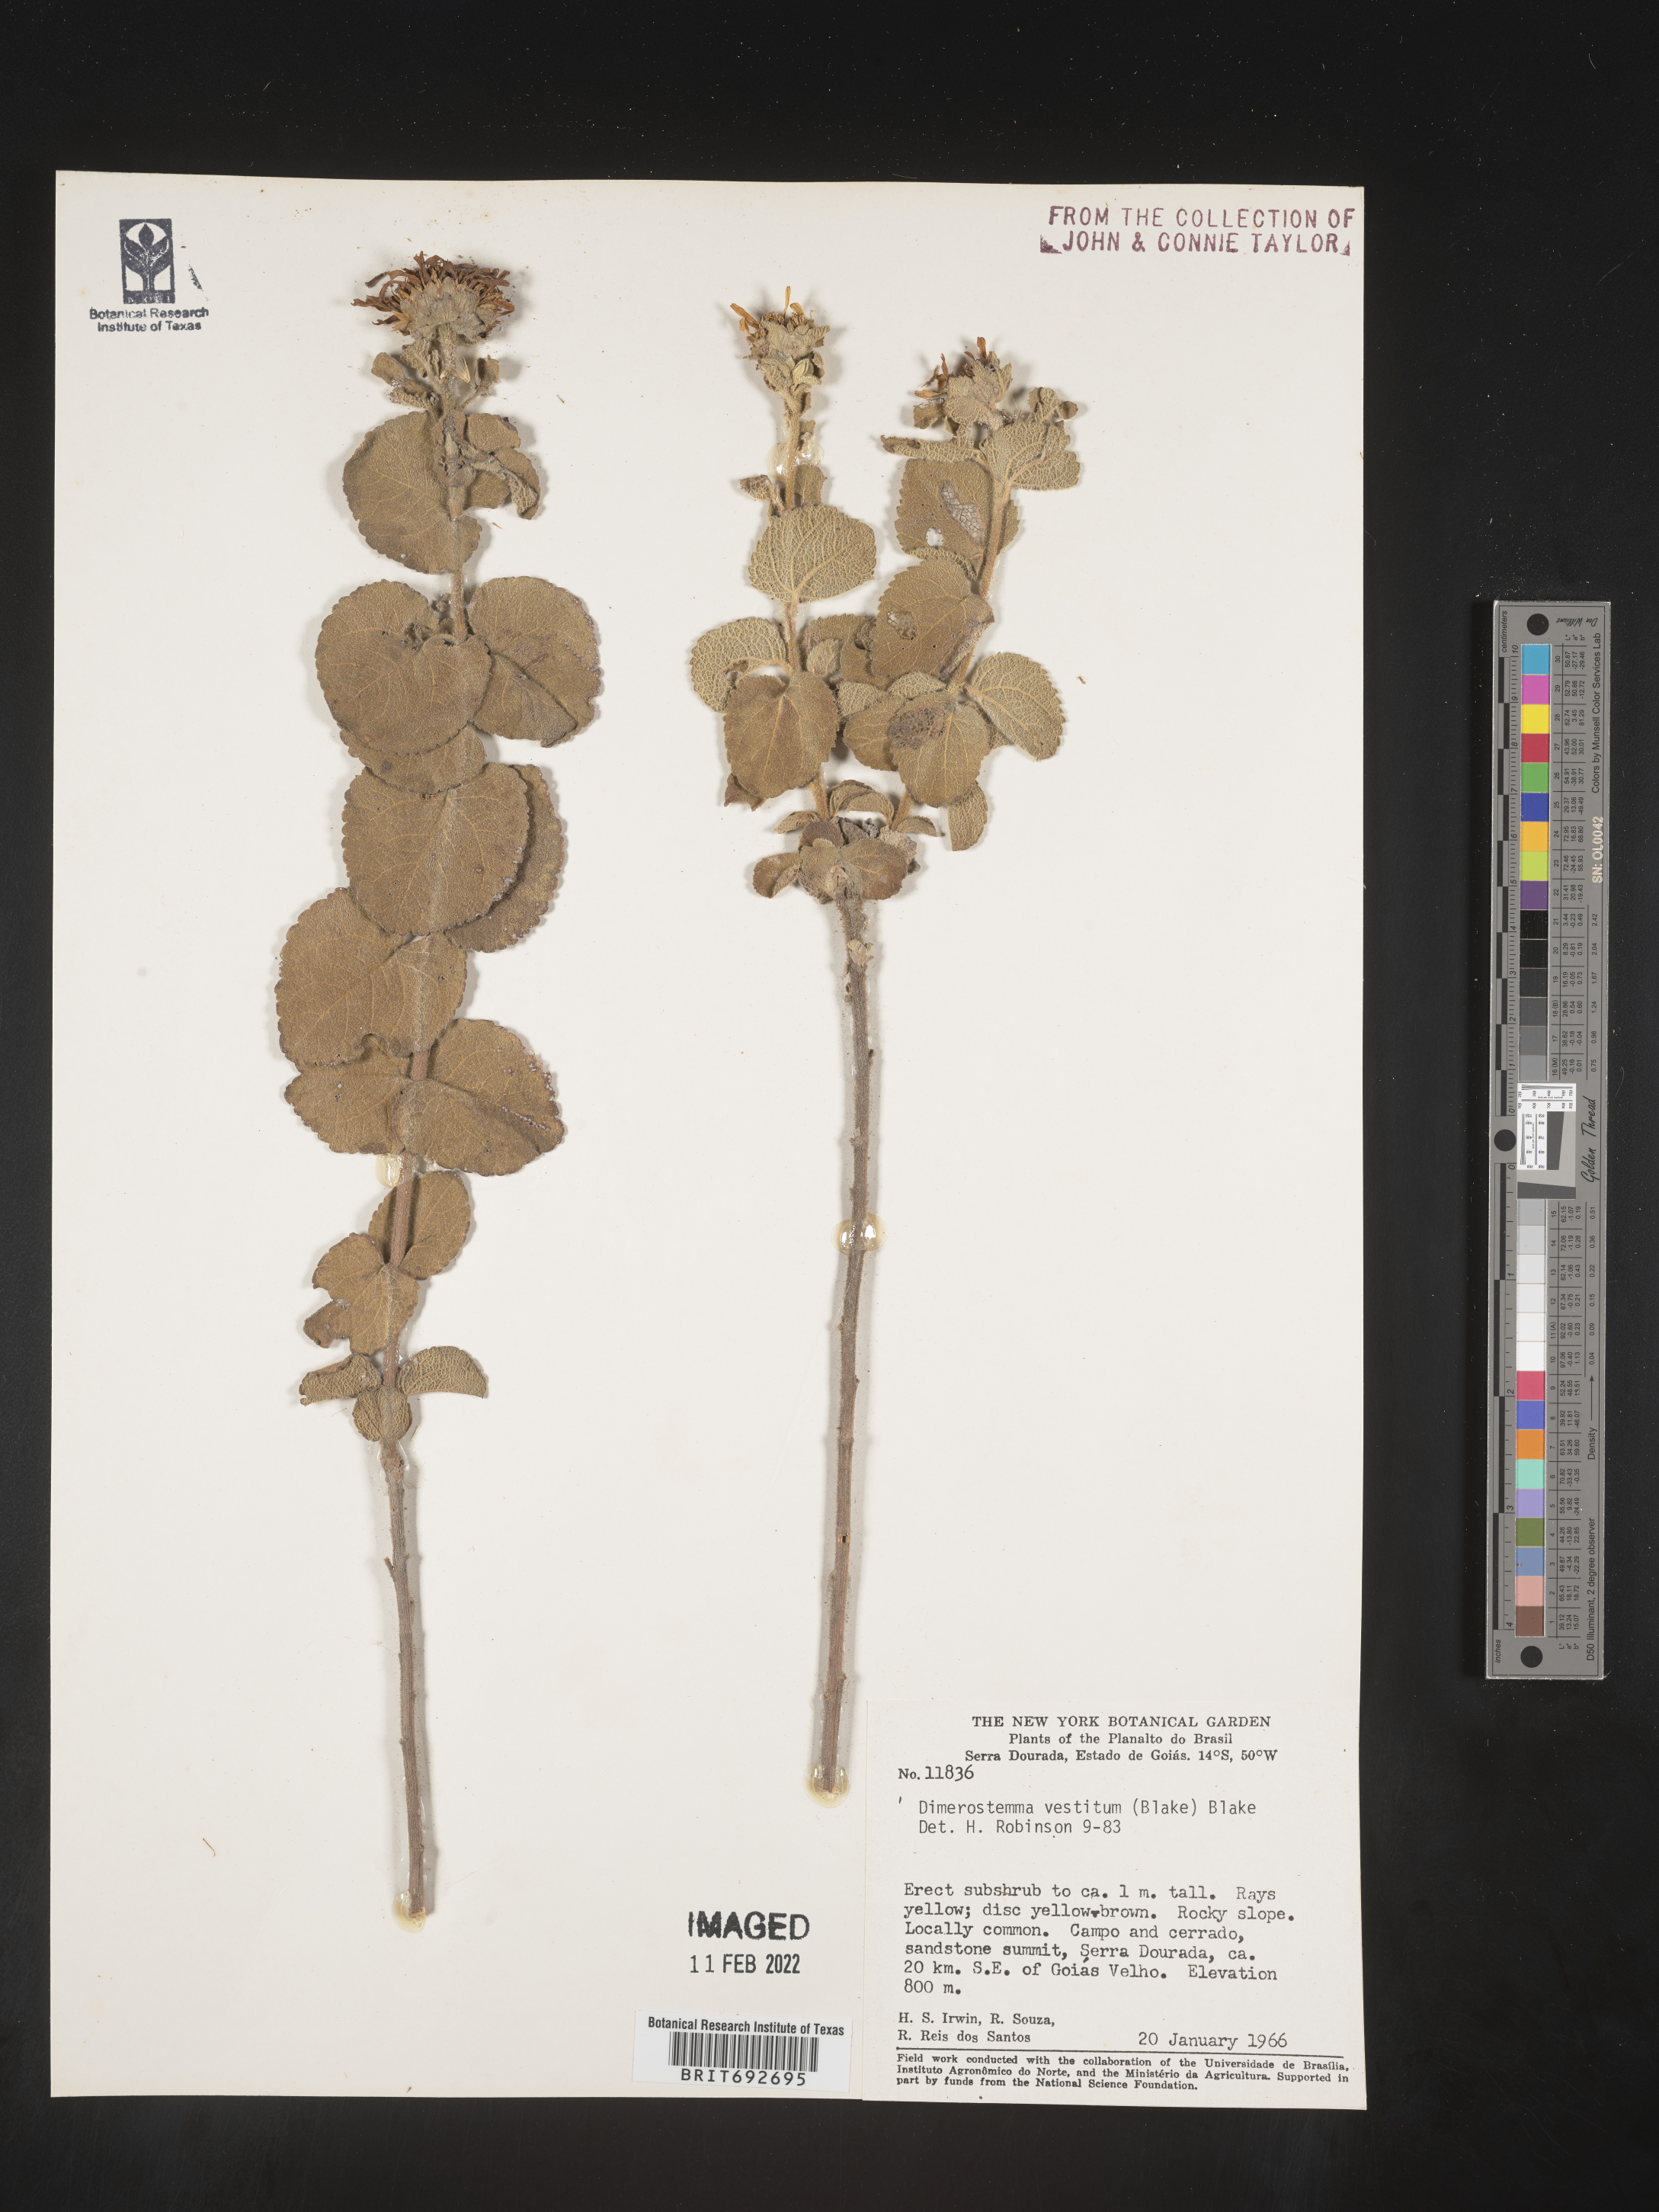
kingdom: Plantae
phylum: Tracheophyta
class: Magnoliopsida
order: Asterales
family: Asteraceae
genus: Dasyphyllum
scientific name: Dasyphyllum
